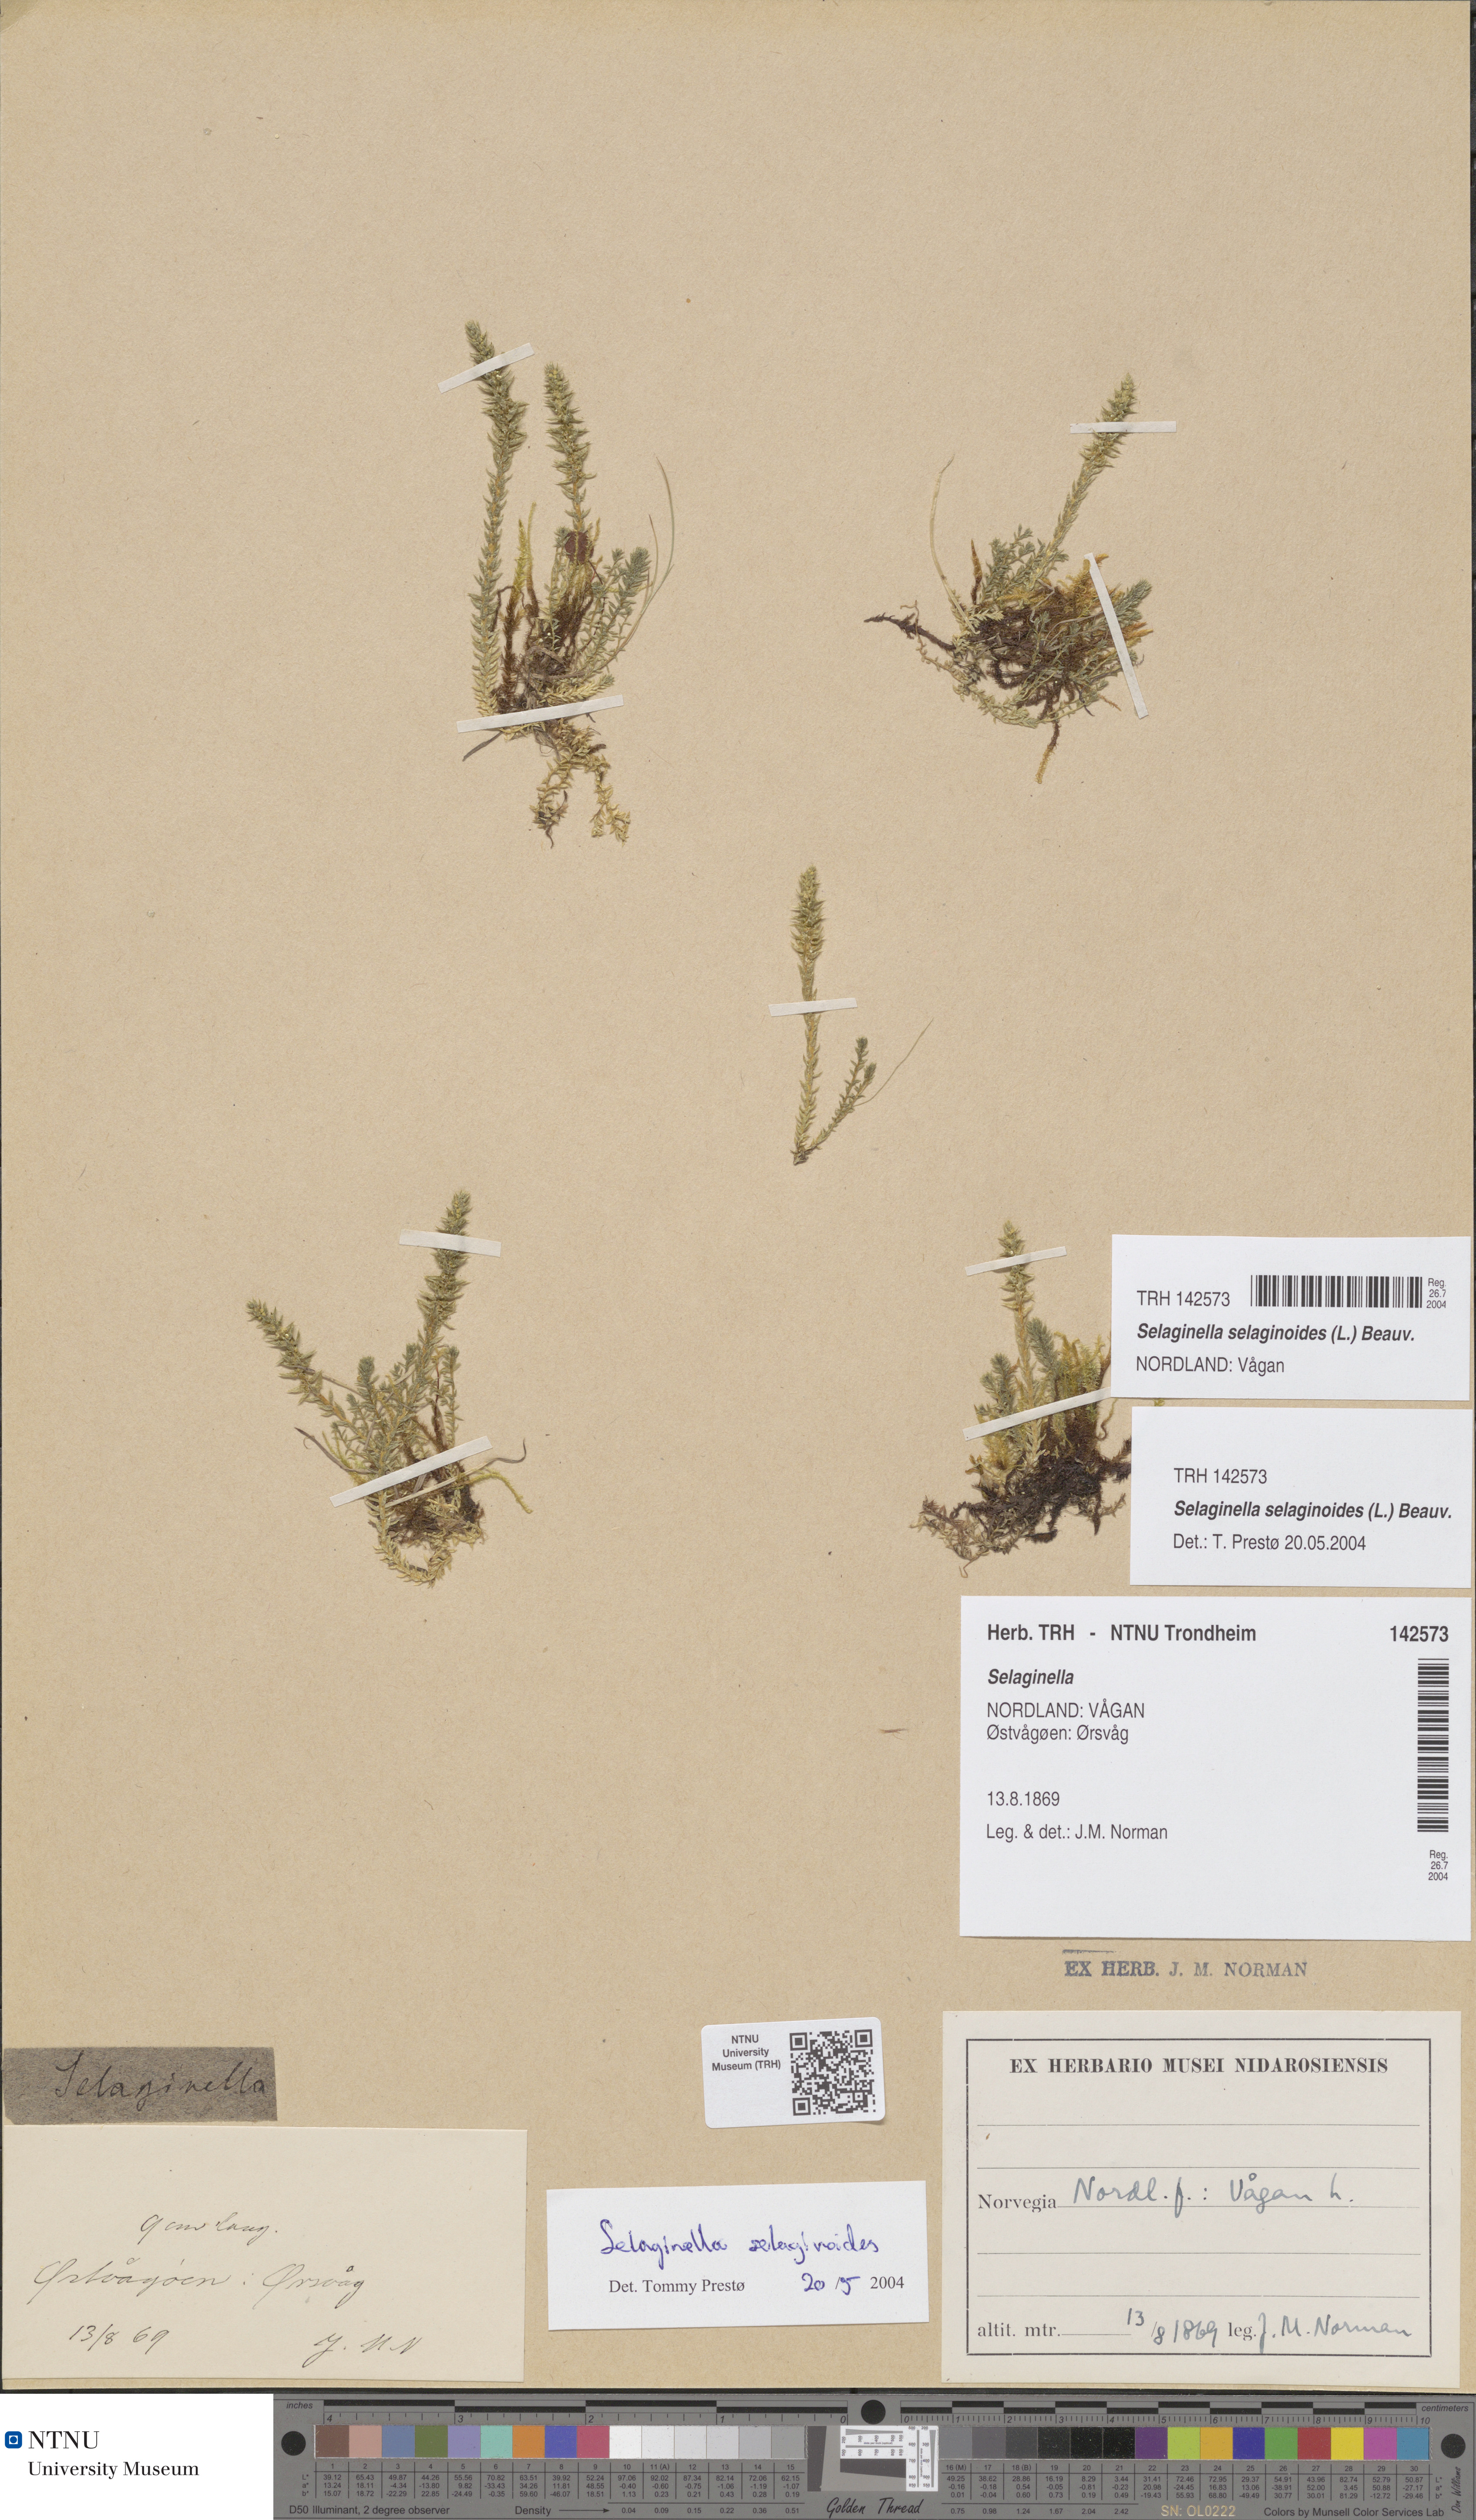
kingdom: Plantae
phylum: Tracheophyta
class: Lycopodiopsida
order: Selaginellales
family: Selaginellaceae
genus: Selaginella
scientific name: Selaginella selaginoides
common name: Prickly mountain-moss
